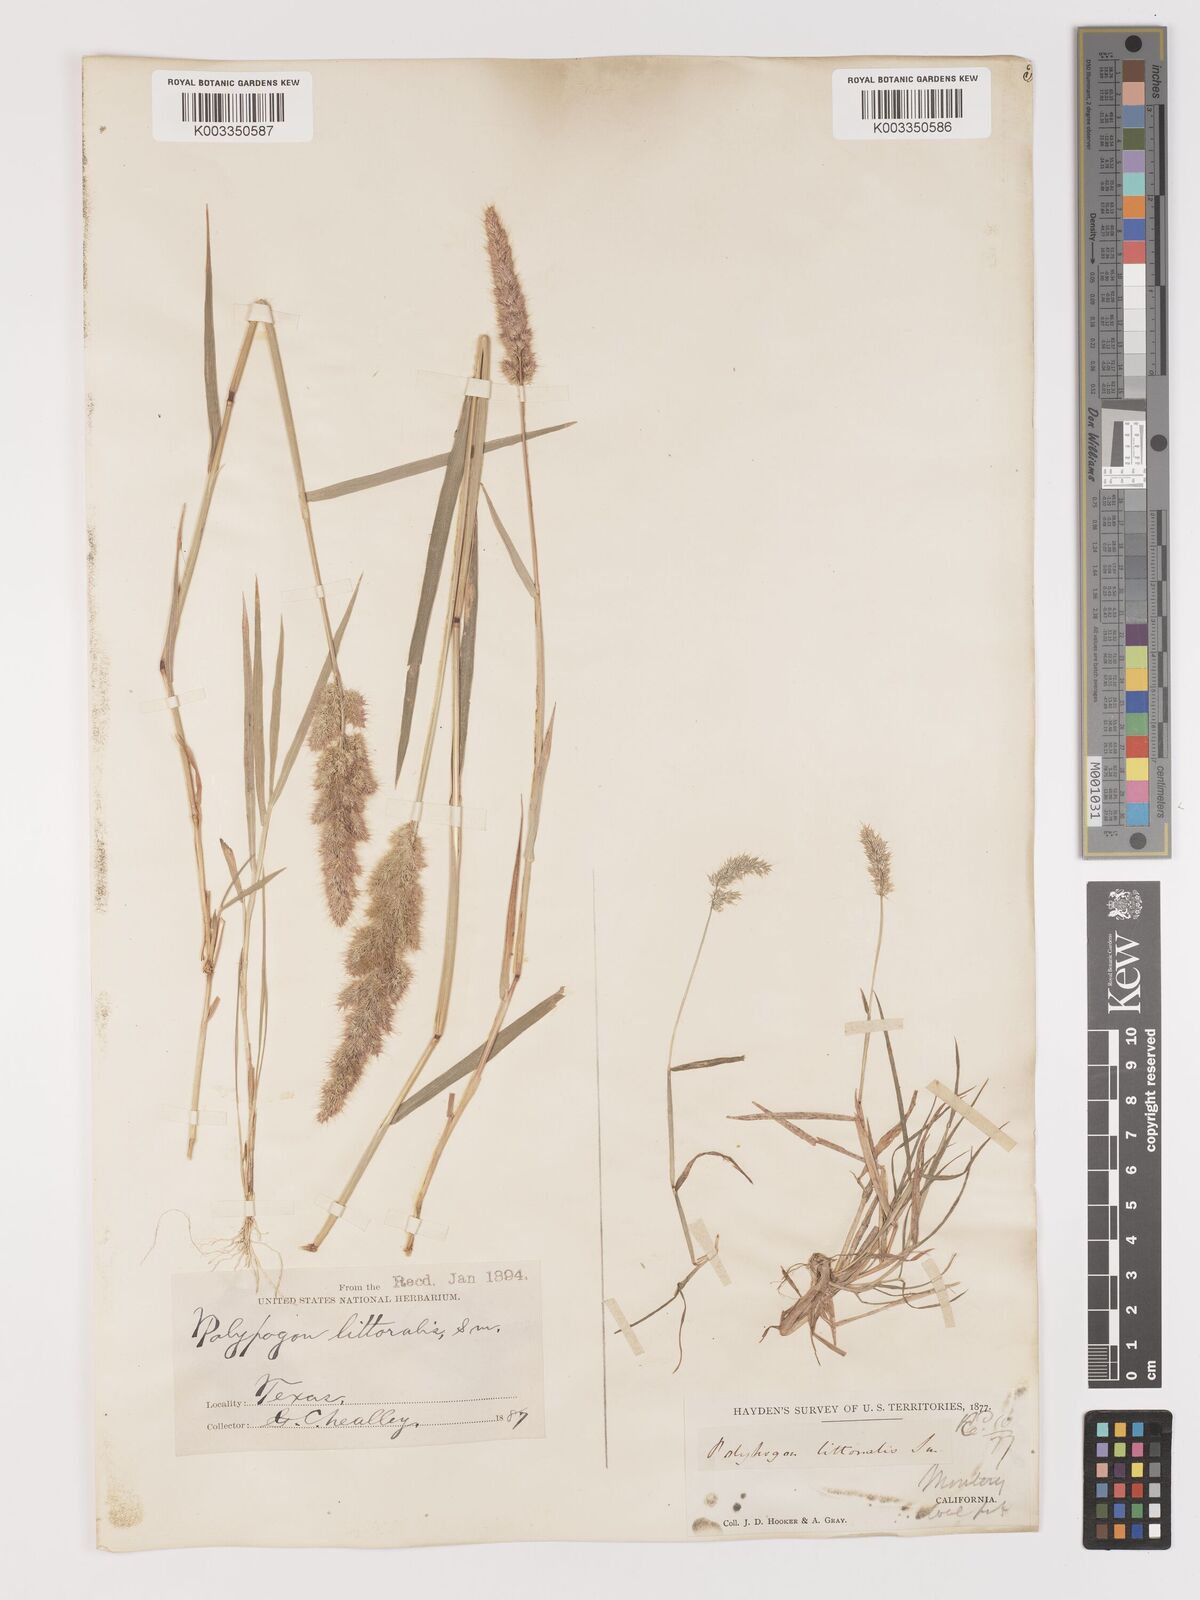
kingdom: Plantae
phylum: Tracheophyta
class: Liliopsida
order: Poales
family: Poaceae
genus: Agropogon
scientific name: Agropogon lutosus
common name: Coast agropogon
